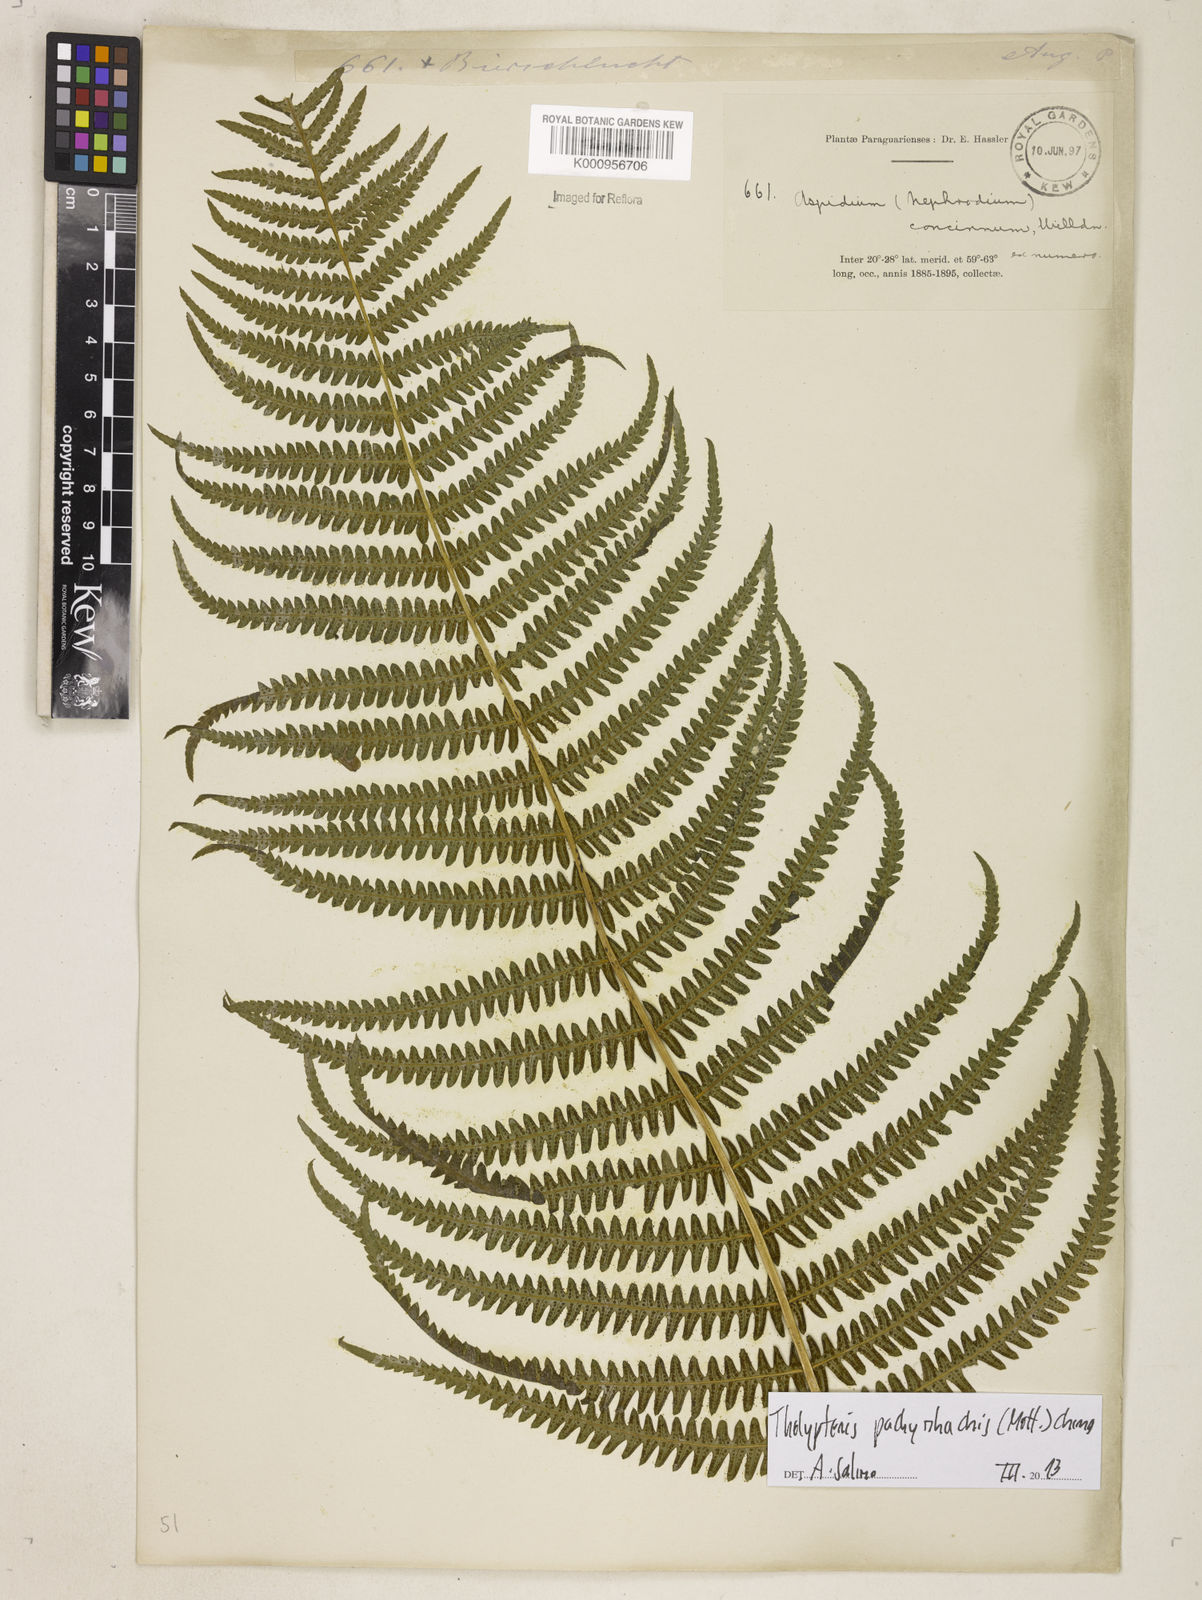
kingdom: Plantae
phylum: Tracheophyta
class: Polypodiopsida
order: Polypodiales
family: Thelypteridaceae
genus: Amauropelta
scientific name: Amauropelta pachyrhachis
